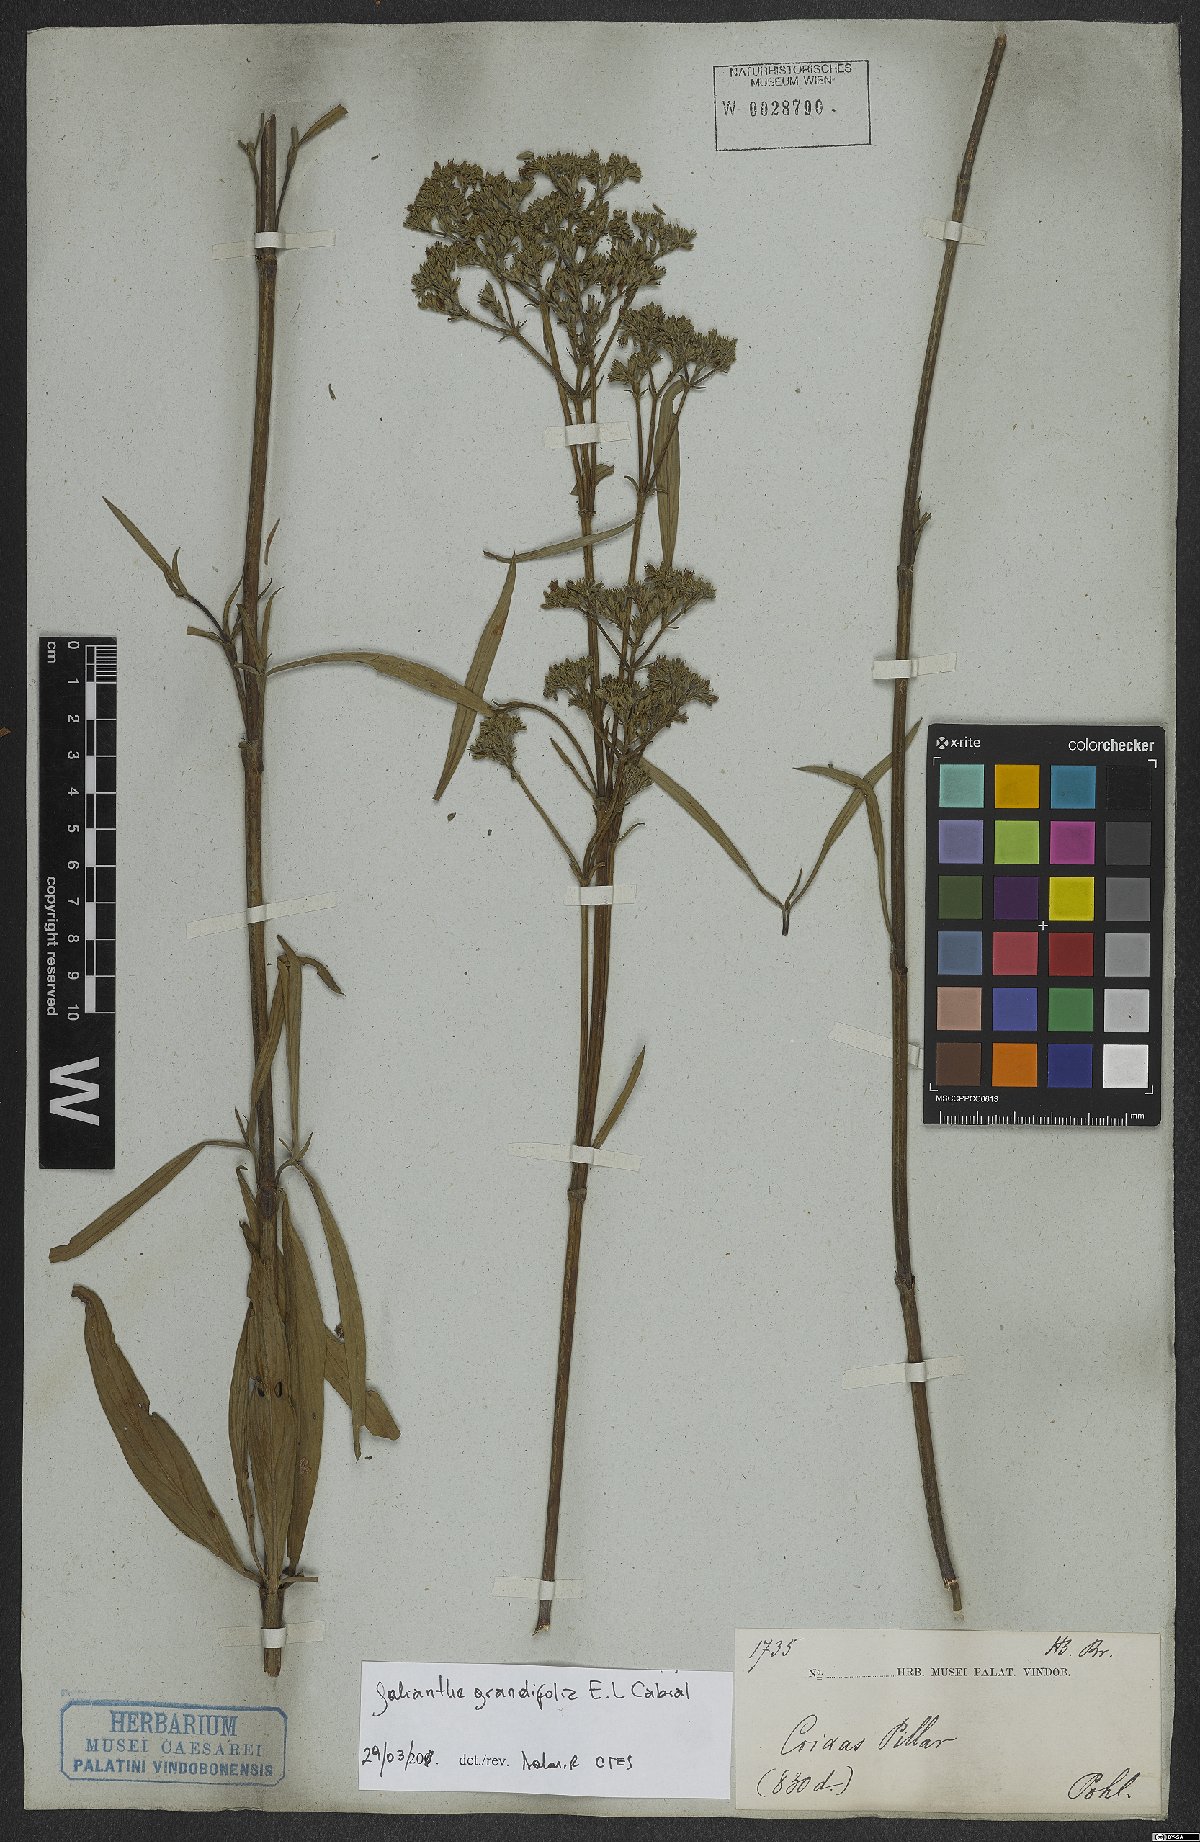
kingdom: Plantae
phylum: Tracheophyta
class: Magnoliopsida
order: Gentianales
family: Rubiaceae
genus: Galianthe
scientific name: Galianthe grandifolia
